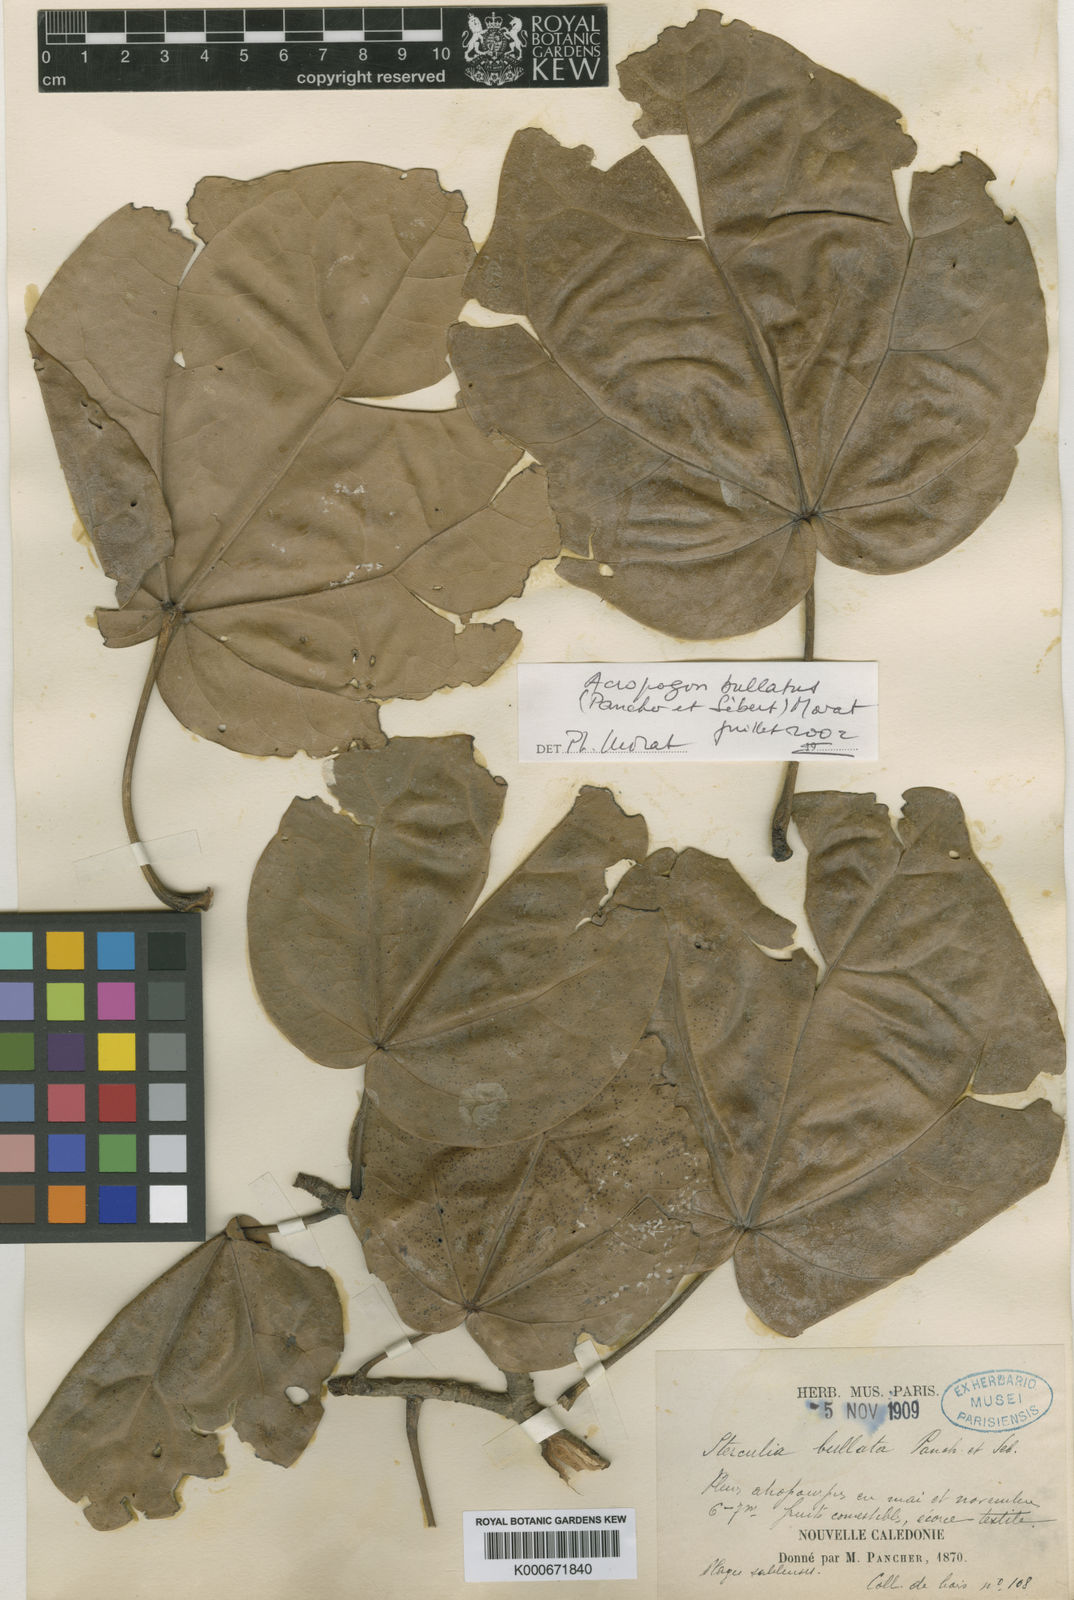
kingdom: Plantae
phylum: Tracheophyta
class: Magnoliopsida
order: Malvales
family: Malvaceae
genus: Acropogon
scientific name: Acropogon bullatus
